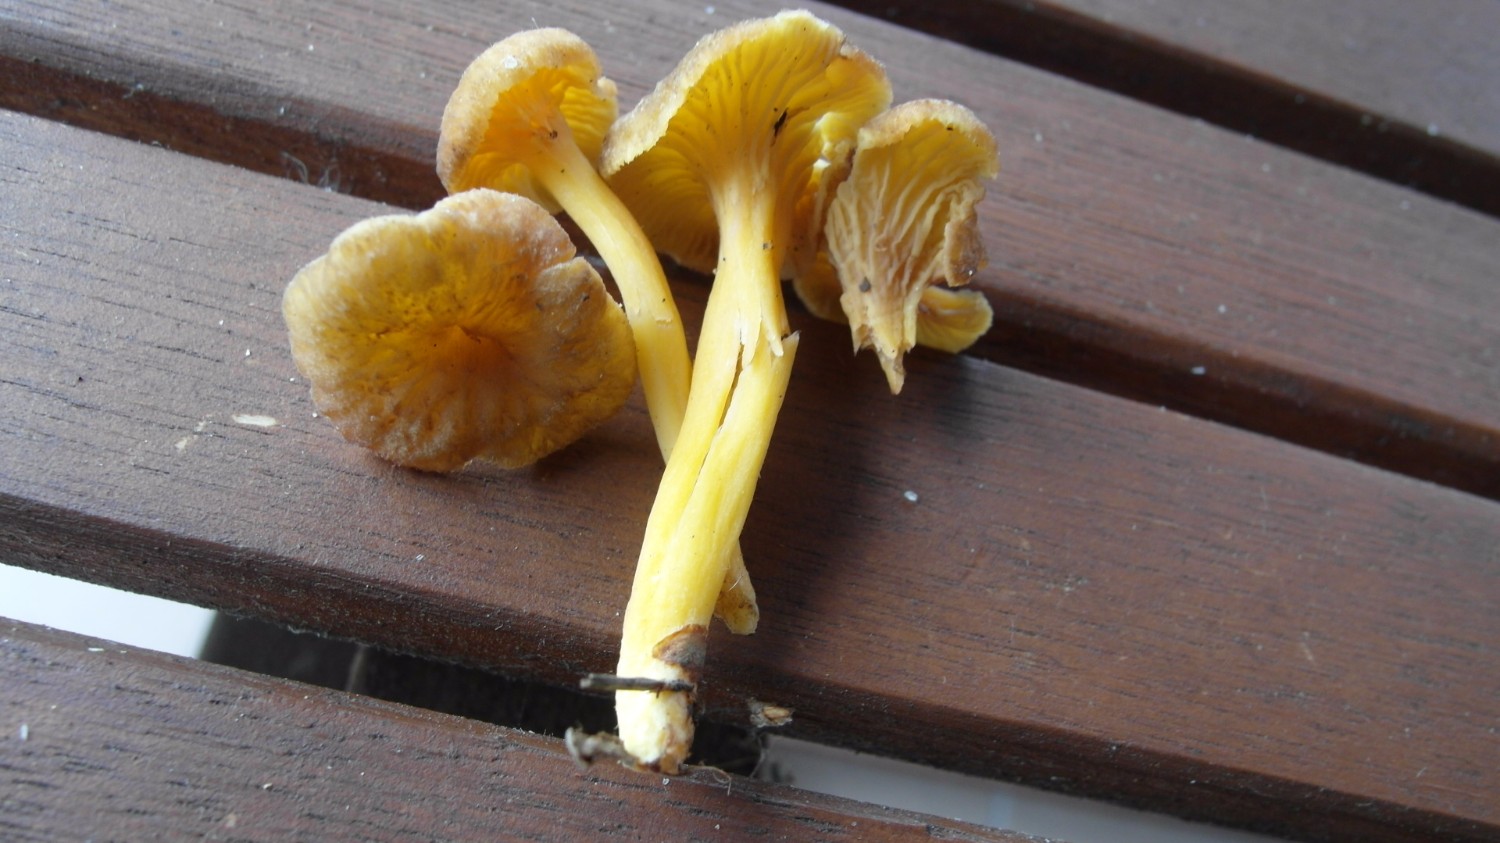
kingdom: Fungi
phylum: Basidiomycota
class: Agaricomycetes
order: Cantharellales
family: Hydnaceae
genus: Craterellus
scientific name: Craterellus tubaeformis
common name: tragt-kantarel
